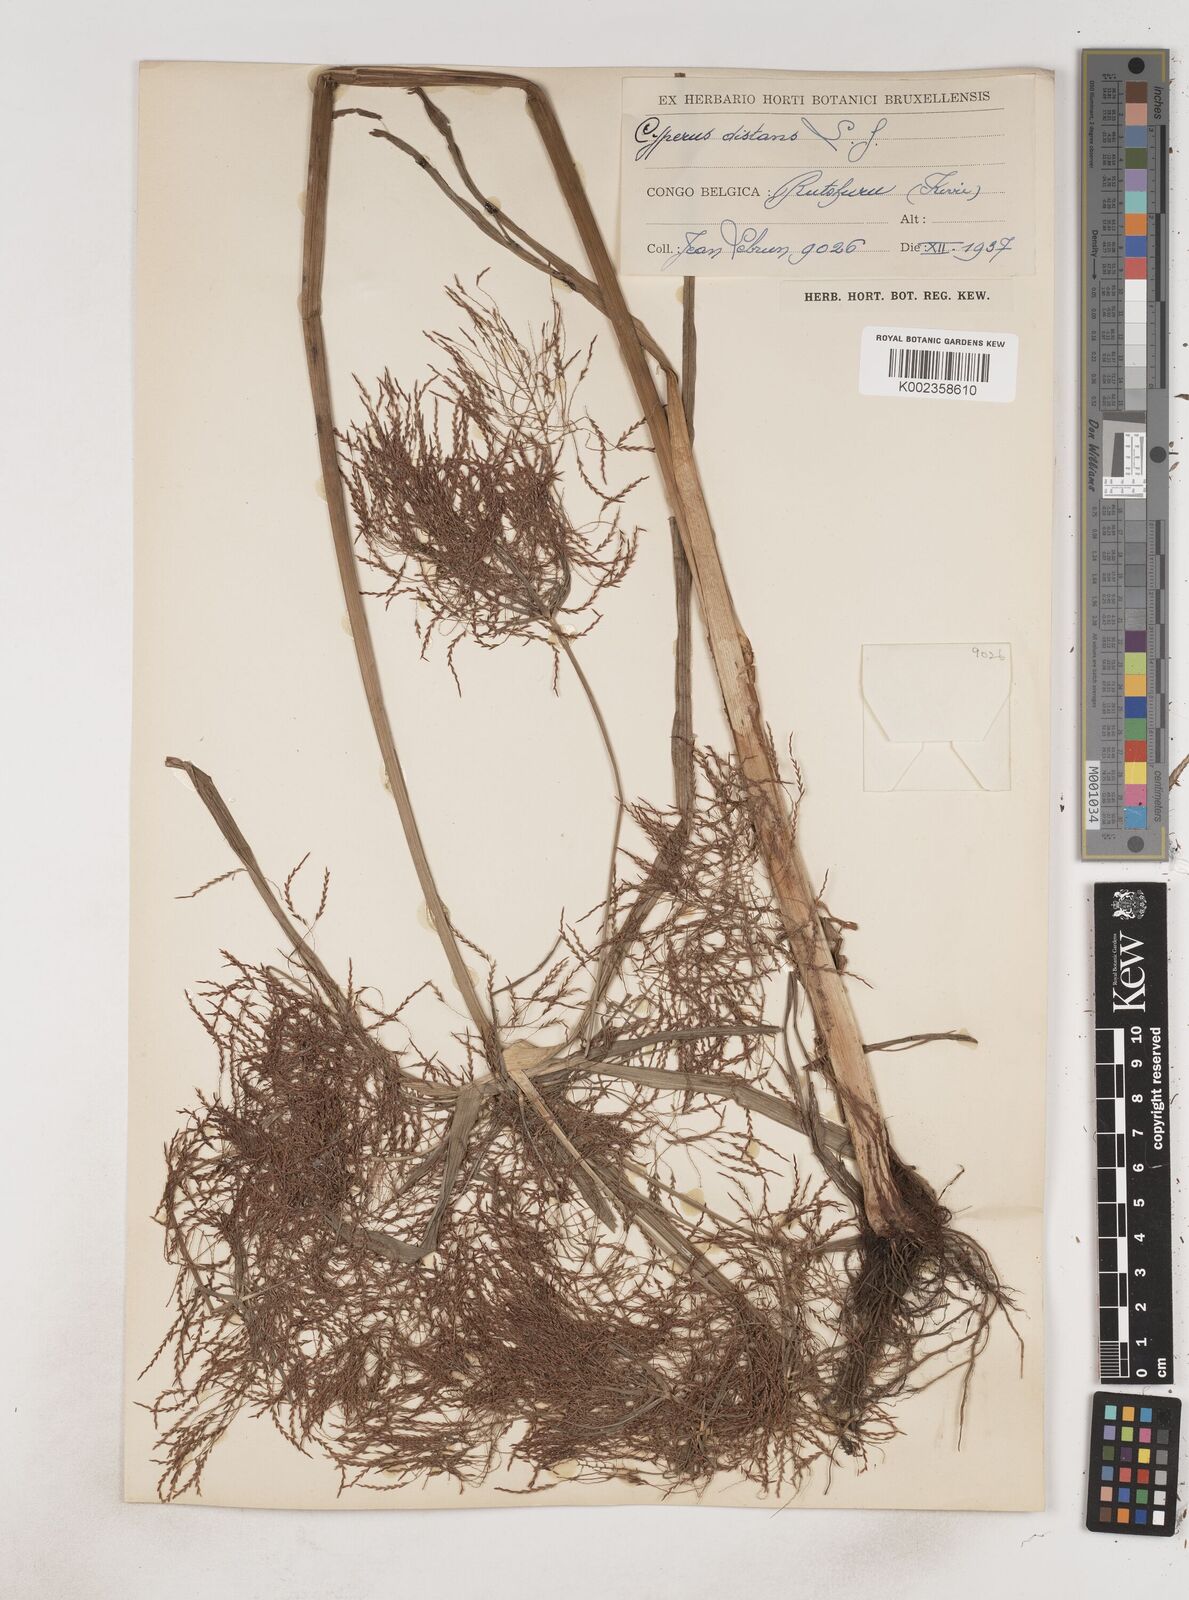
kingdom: Plantae
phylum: Tracheophyta
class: Liliopsida
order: Poales
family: Cyperaceae
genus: Cyperus
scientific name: Cyperus distans
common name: Slender cyperus
